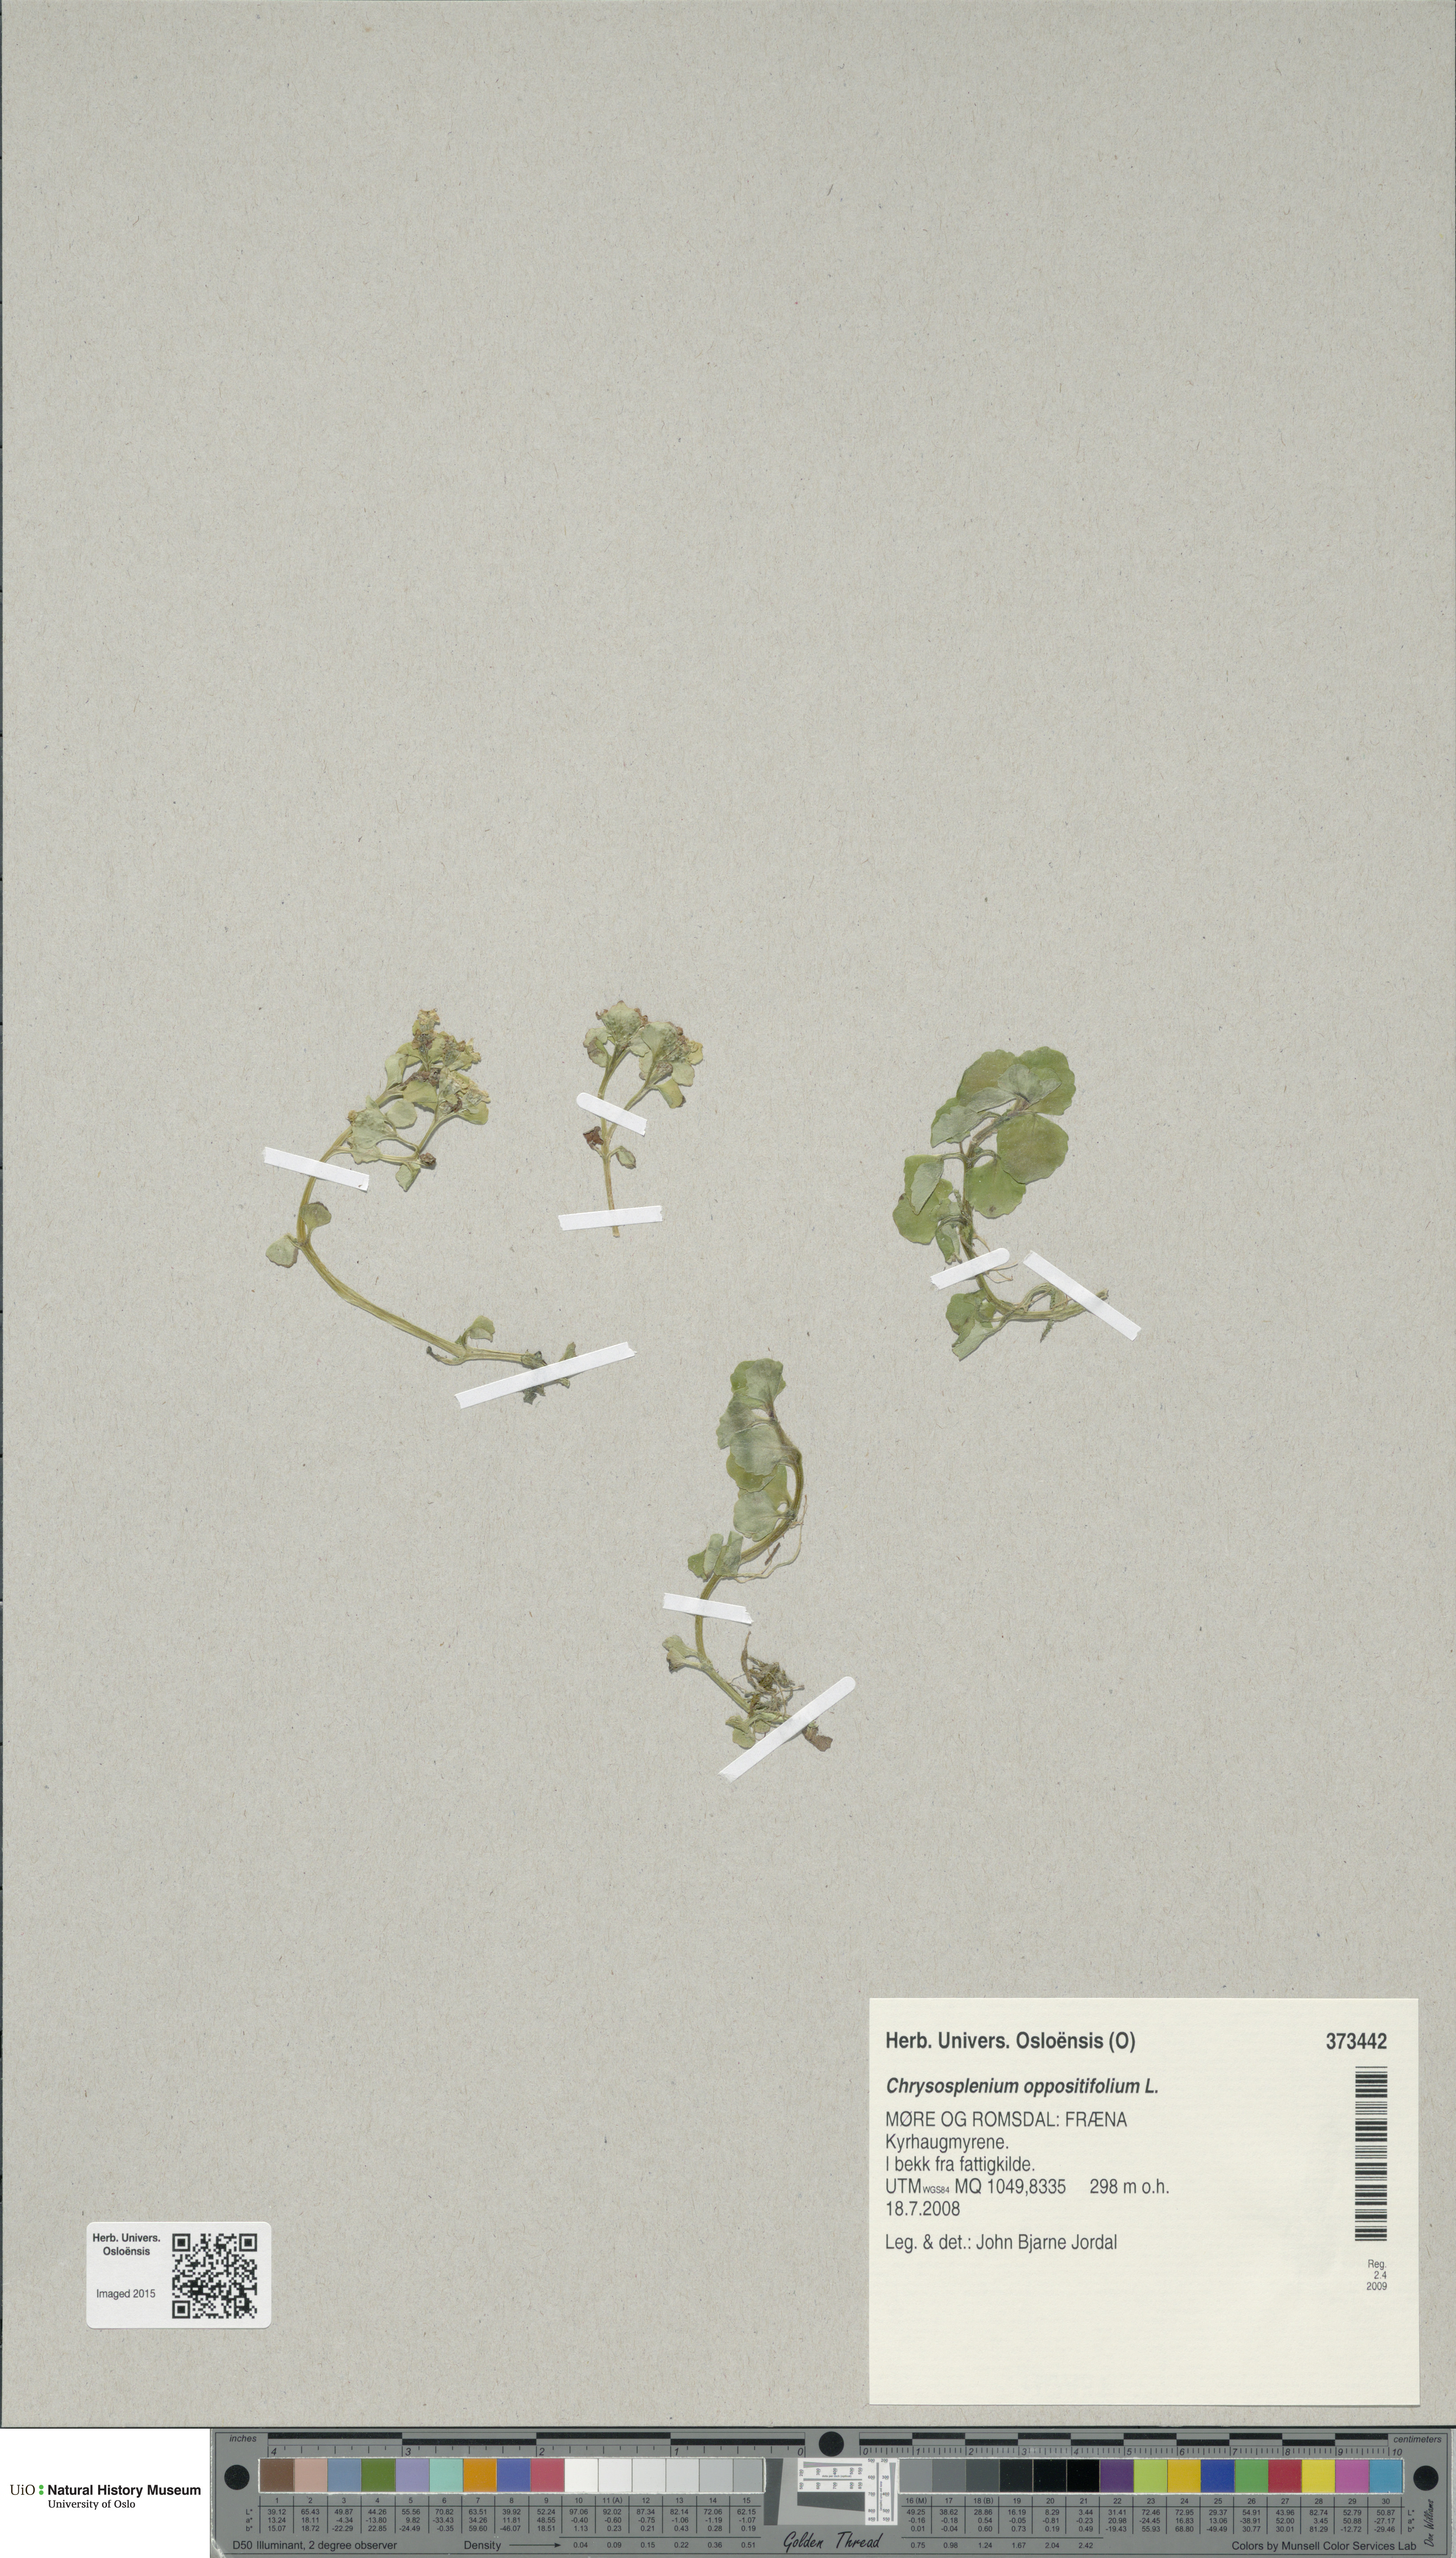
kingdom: Plantae
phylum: Tracheophyta
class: Magnoliopsida
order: Saxifragales
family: Saxifragaceae
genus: Chrysosplenium
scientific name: Chrysosplenium oppositifolium
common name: Opposite-leaved golden-saxifrage
